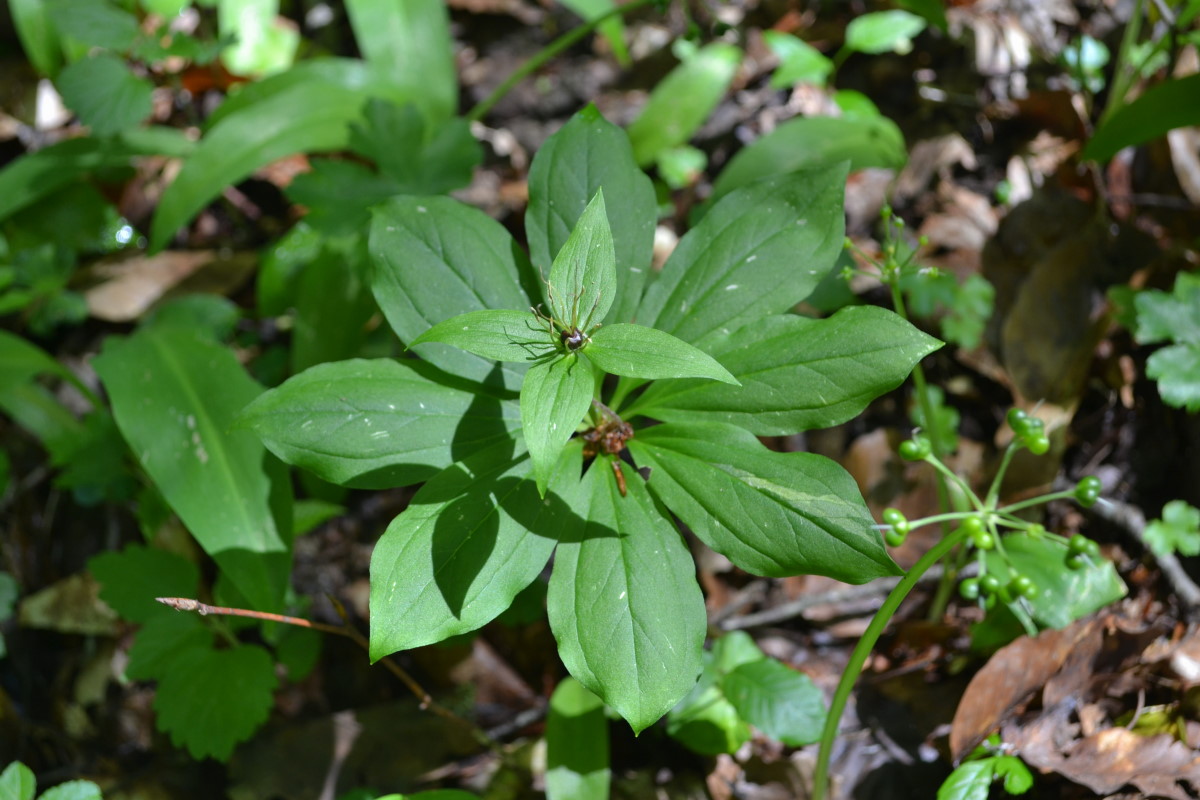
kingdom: Plantae
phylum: Tracheophyta
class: Liliopsida
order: Liliales
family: Melanthiaceae
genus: Paris
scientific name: Paris
